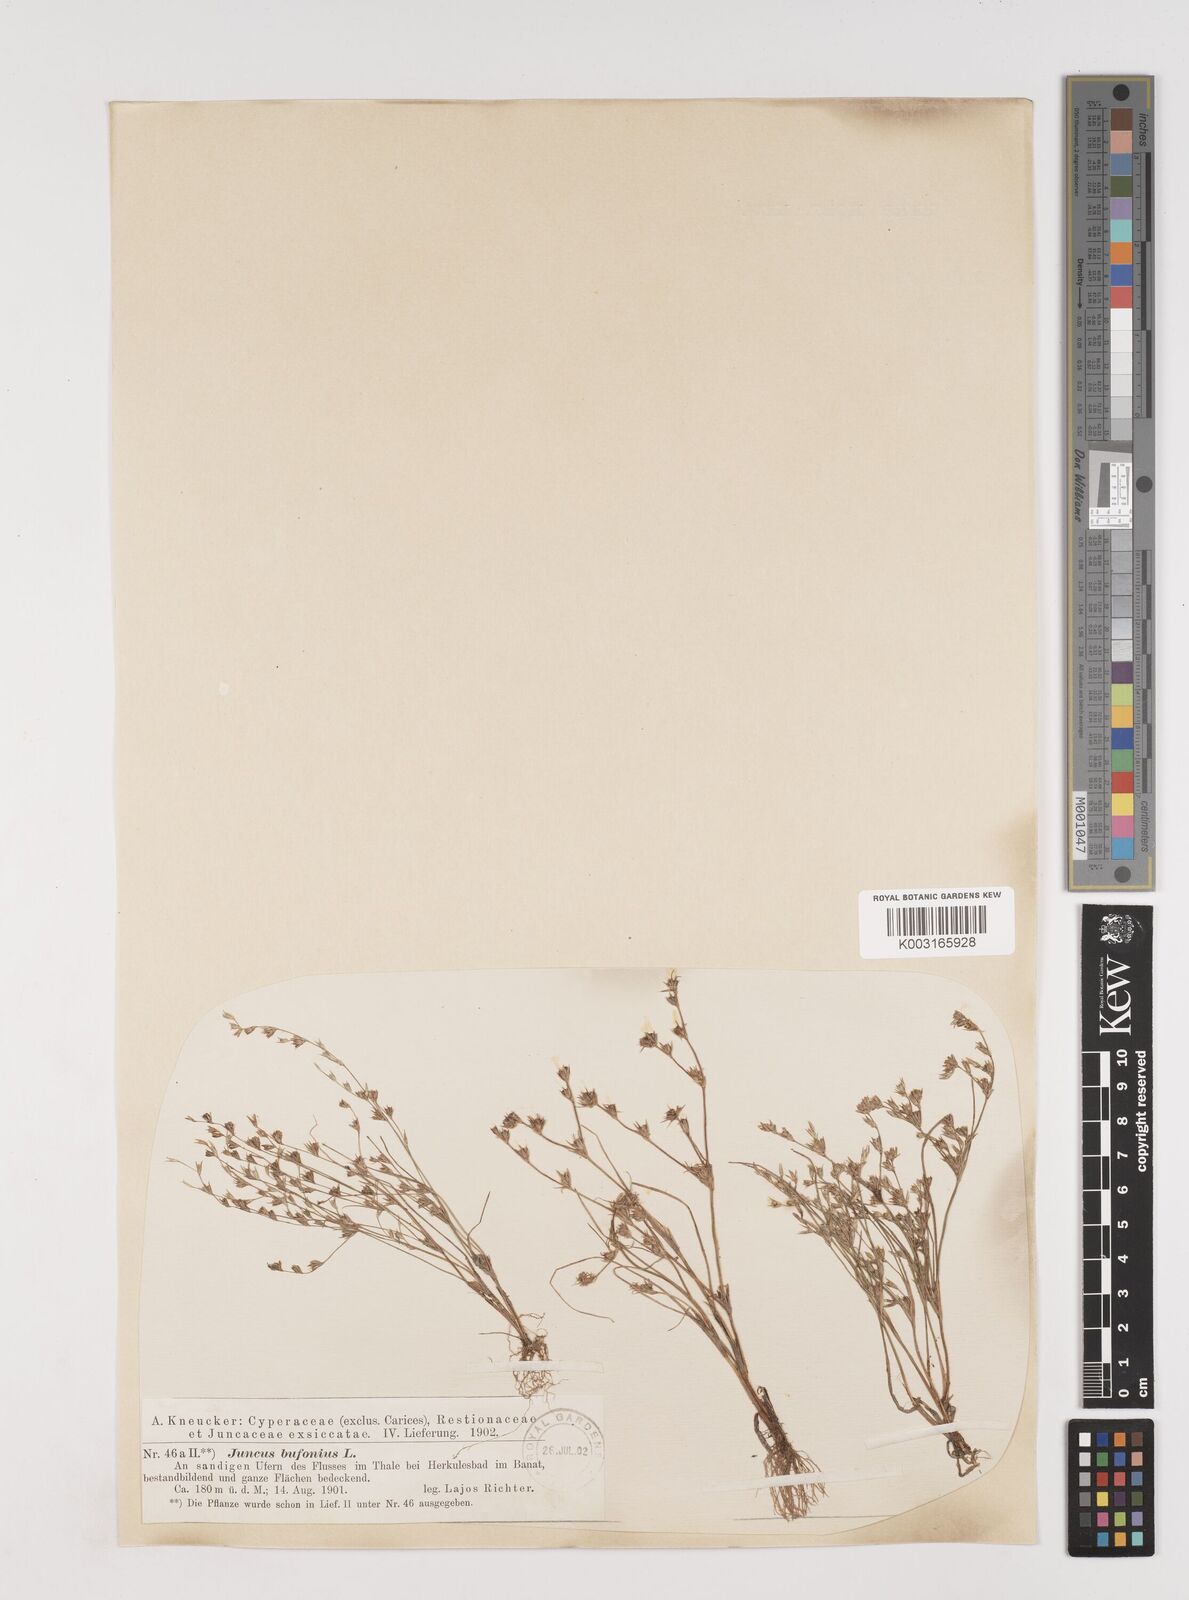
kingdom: Plantae
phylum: Tracheophyta
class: Liliopsida
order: Poales
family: Juncaceae
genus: Juncus
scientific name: Juncus bufonius
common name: Toad rush
